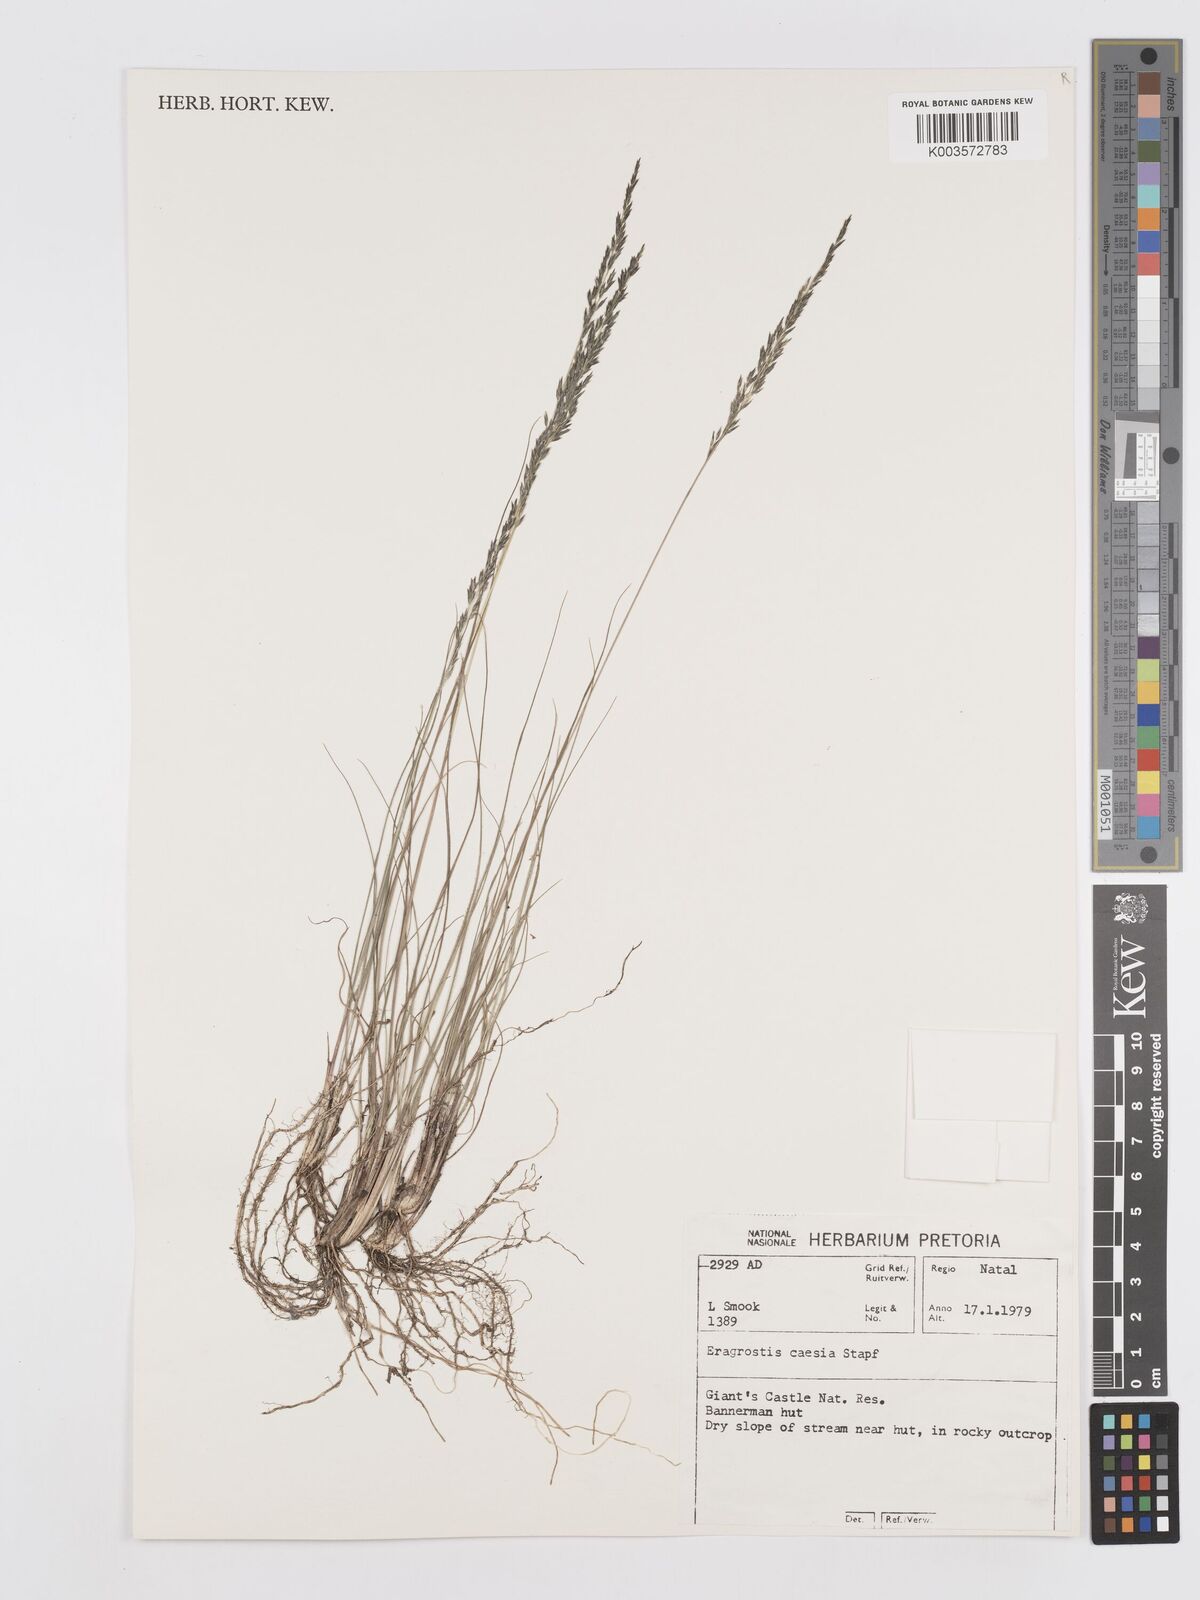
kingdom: Plantae
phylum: Tracheophyta
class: Liliopsida
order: Poales
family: Poaceae
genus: Eragrostis
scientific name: Eragrostis caesia
